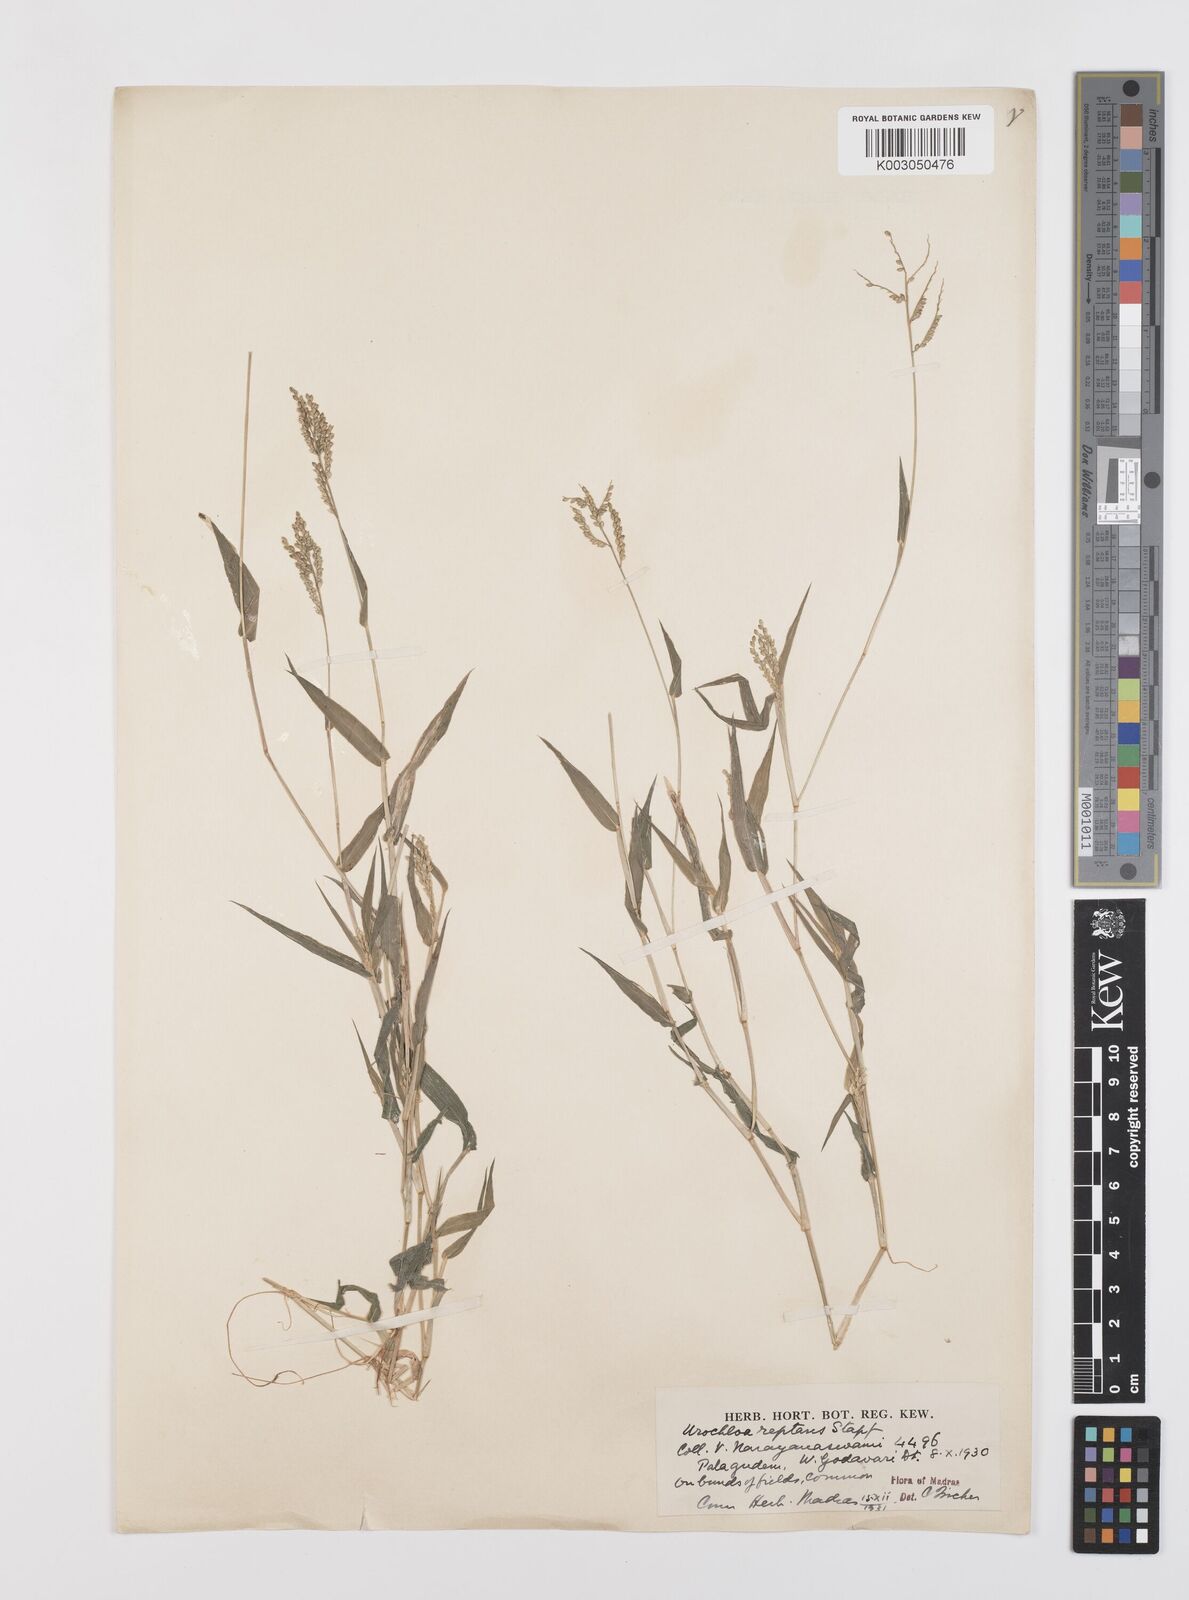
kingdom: Plantae
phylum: Tracheophyta
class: Liliopsida
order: Poales
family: Poaceae
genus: Urochloa
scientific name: Urochloa reptans
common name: Sprawling signalgrass
